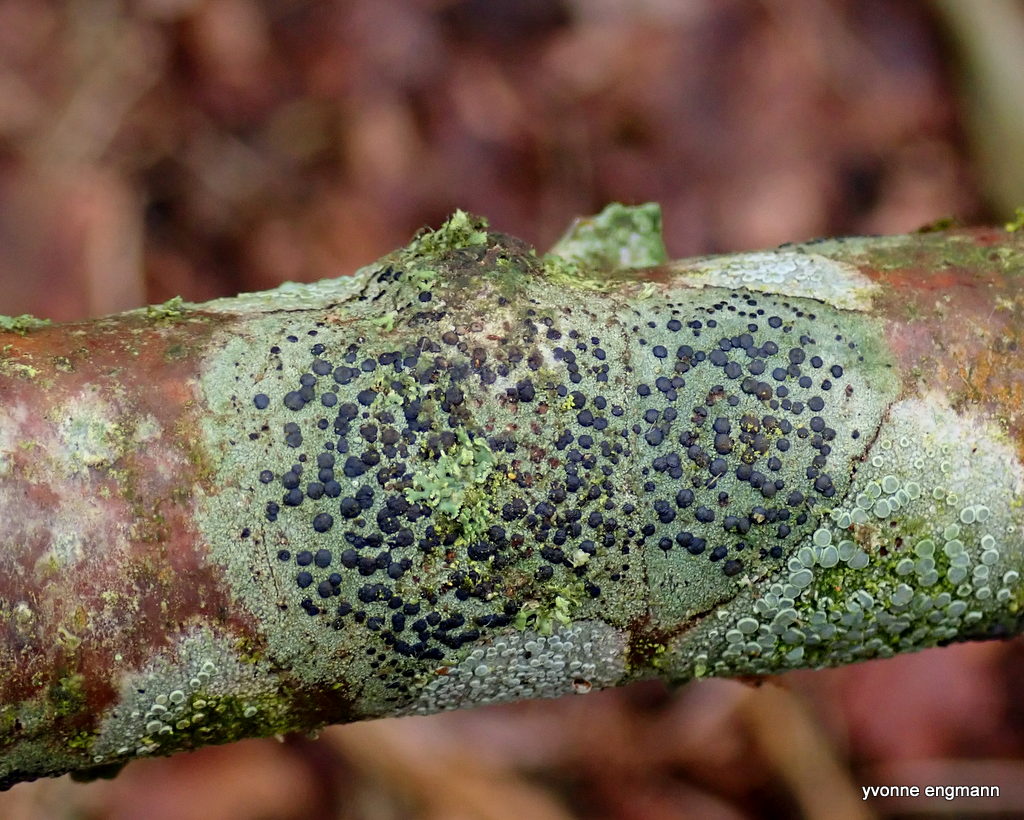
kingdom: Fungi
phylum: Ascomycota
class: Lecanoromycetes
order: Lecanorales
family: Lecanoraceae
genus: Lecidella
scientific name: Lecidella elaeochroma
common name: grågrøn skivelav
